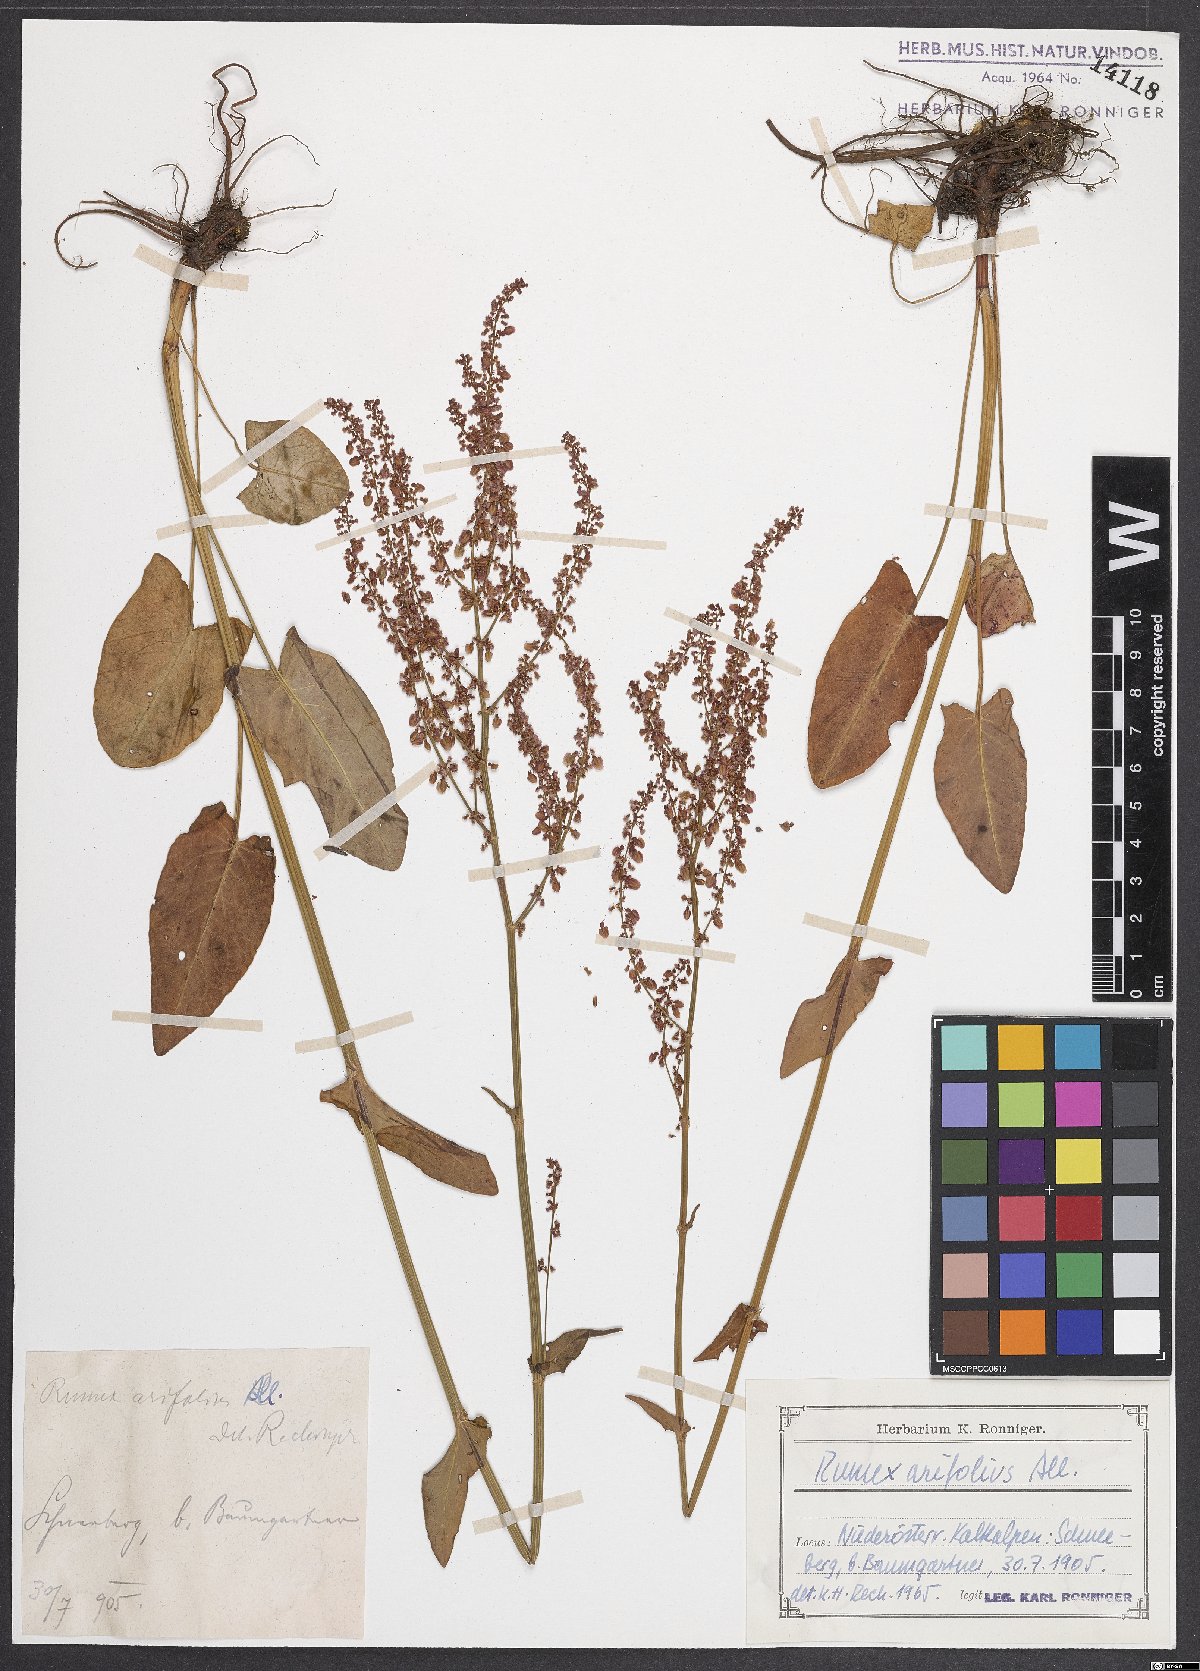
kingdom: Plantae
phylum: Tracheophyta
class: Magnoliopsida
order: Caryophyllales
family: Polygonaceae
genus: Rumex
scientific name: Rumex arifolius
